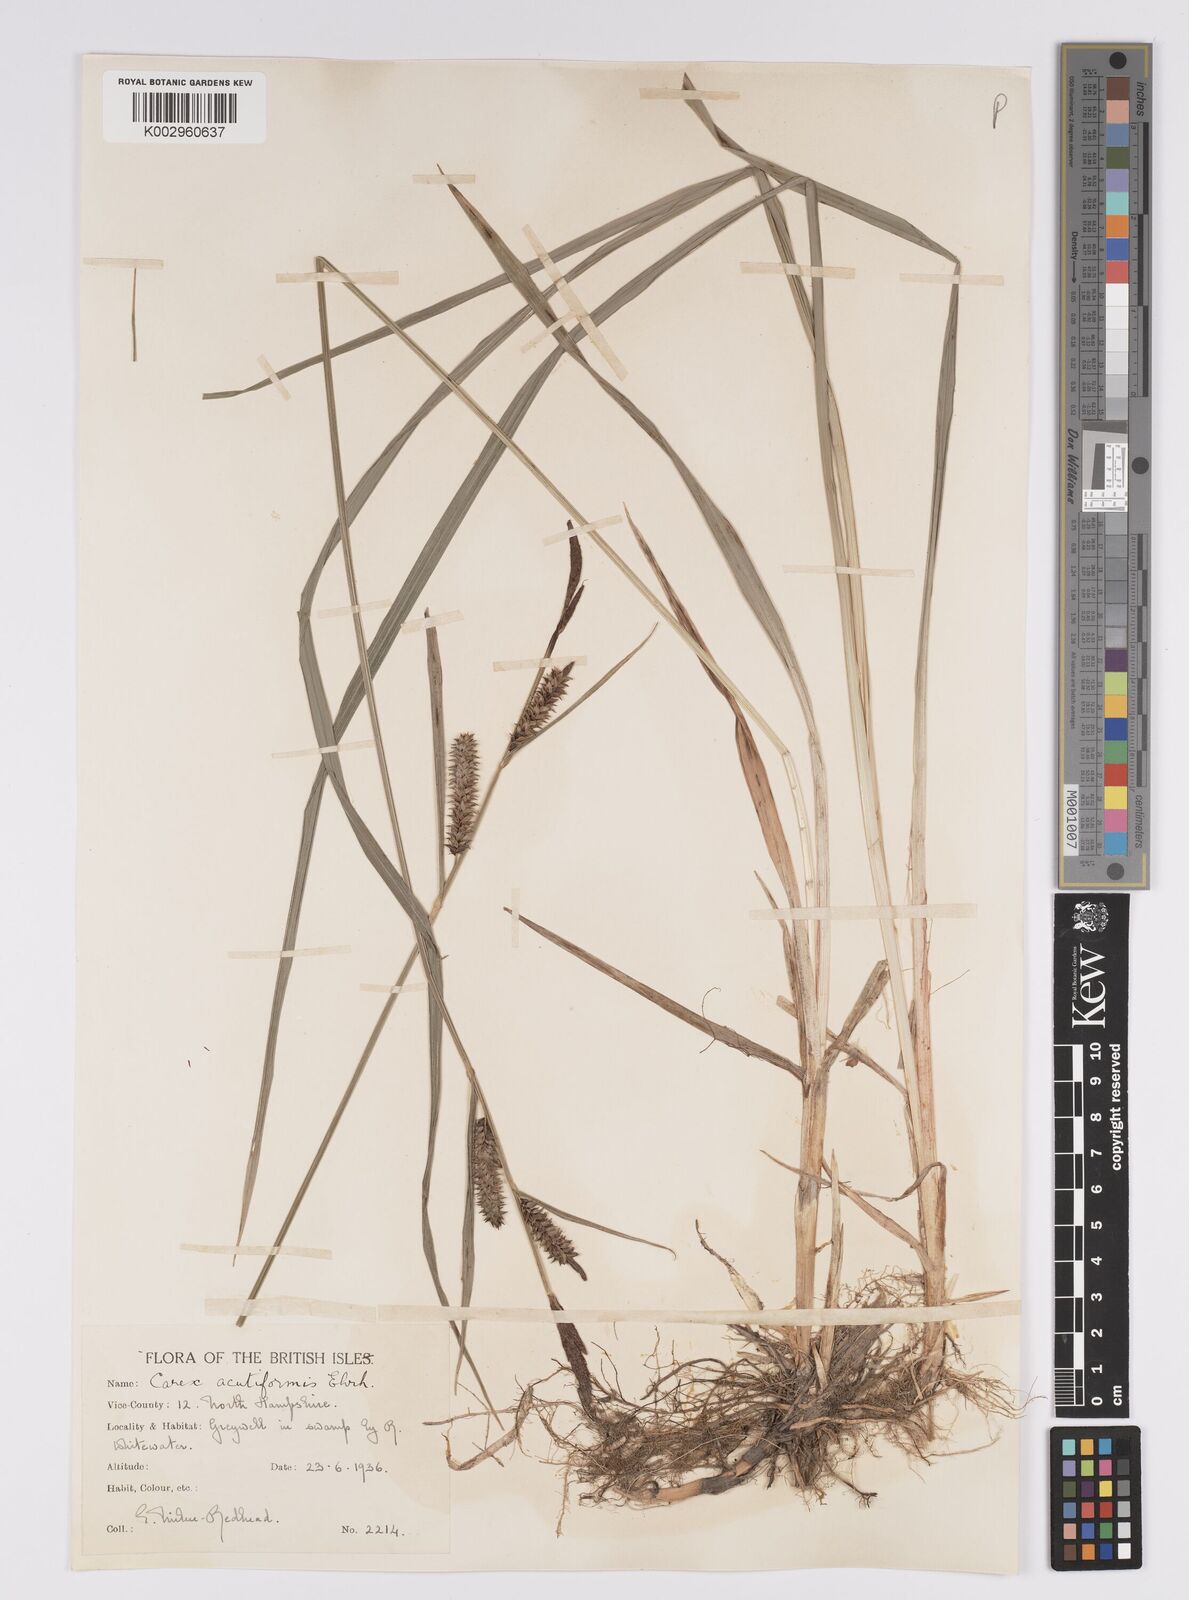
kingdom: Plantae
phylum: Tracheophyta
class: Liliopsida
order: Poales
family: Cyperaceae
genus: Carex
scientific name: Carex acutiformis
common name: Lesser pond-sedge
